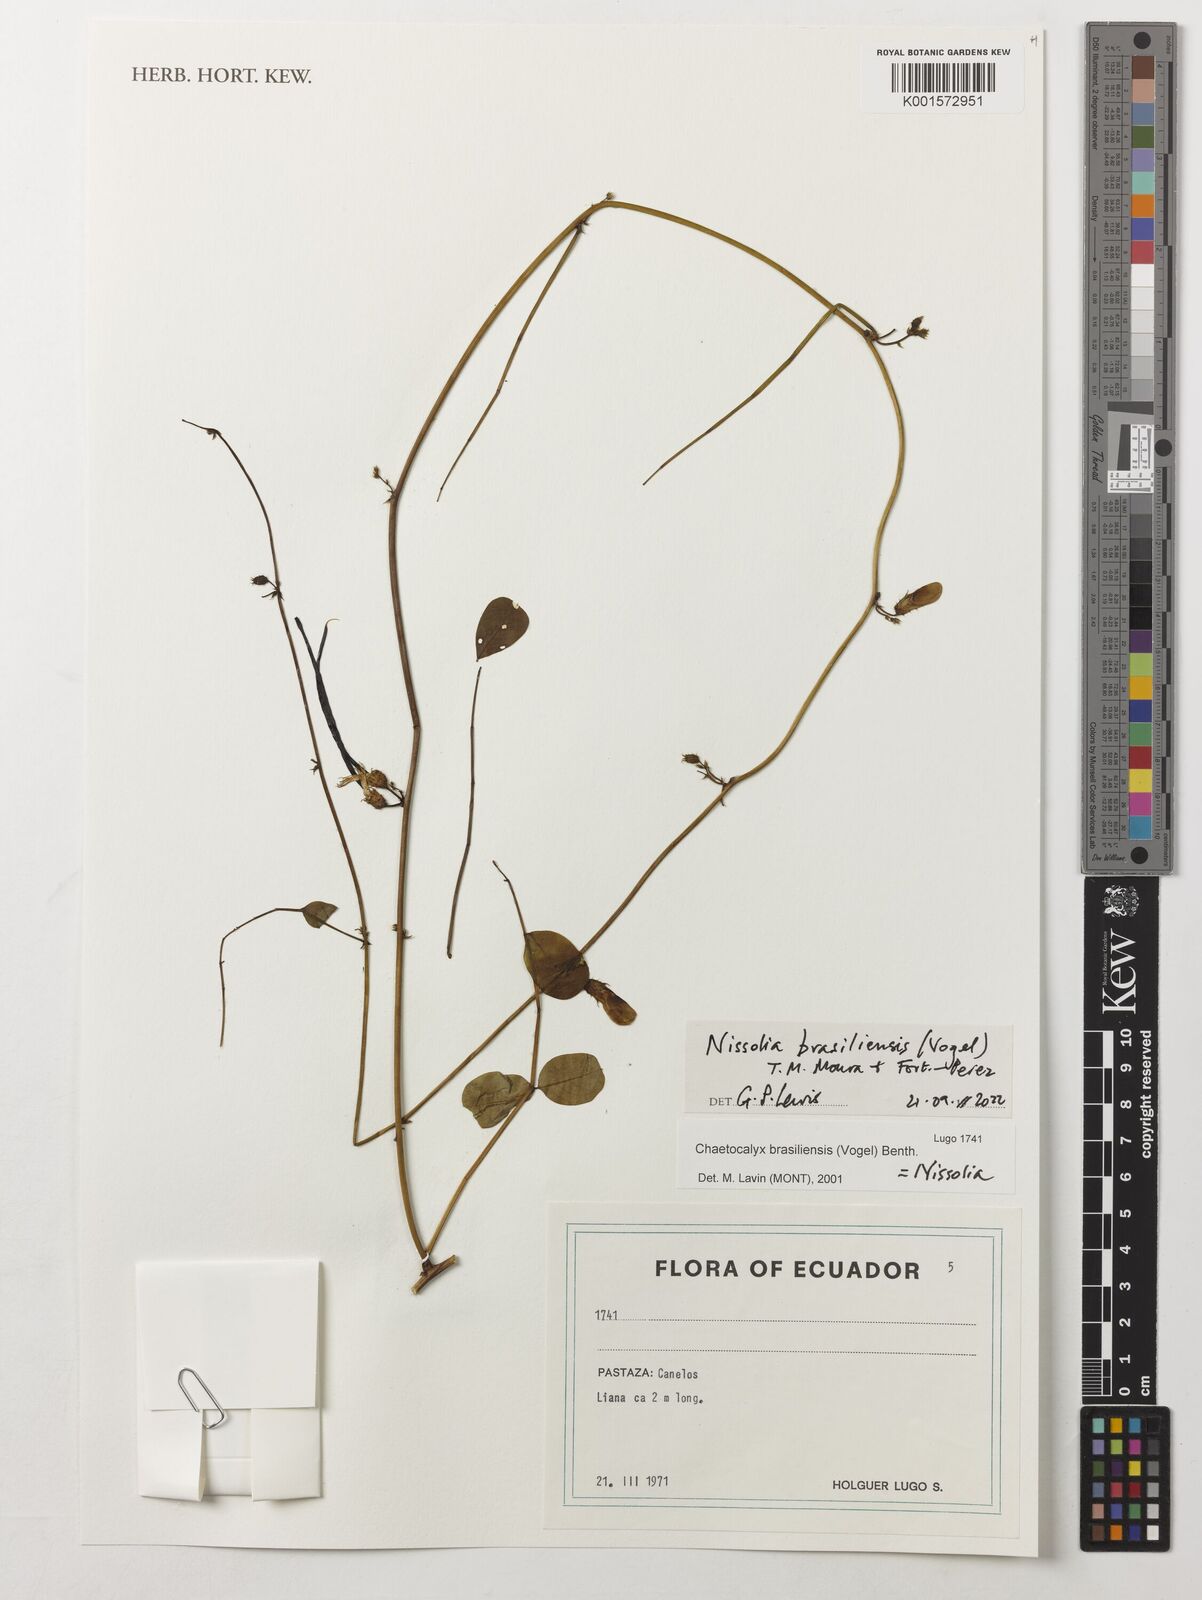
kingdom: Plantae
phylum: Tracheophyta
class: Magnoliopsida
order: Fabales
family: Fabaceae
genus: Nissolia
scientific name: Nissolia brasiliensis
